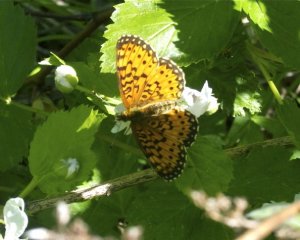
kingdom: Animalia
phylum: Arthropoda
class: Insecta
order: Lepidoptera
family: Nymphalidae
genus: Boloria
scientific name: Boloria selene
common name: Silver-bordered Fritillary
